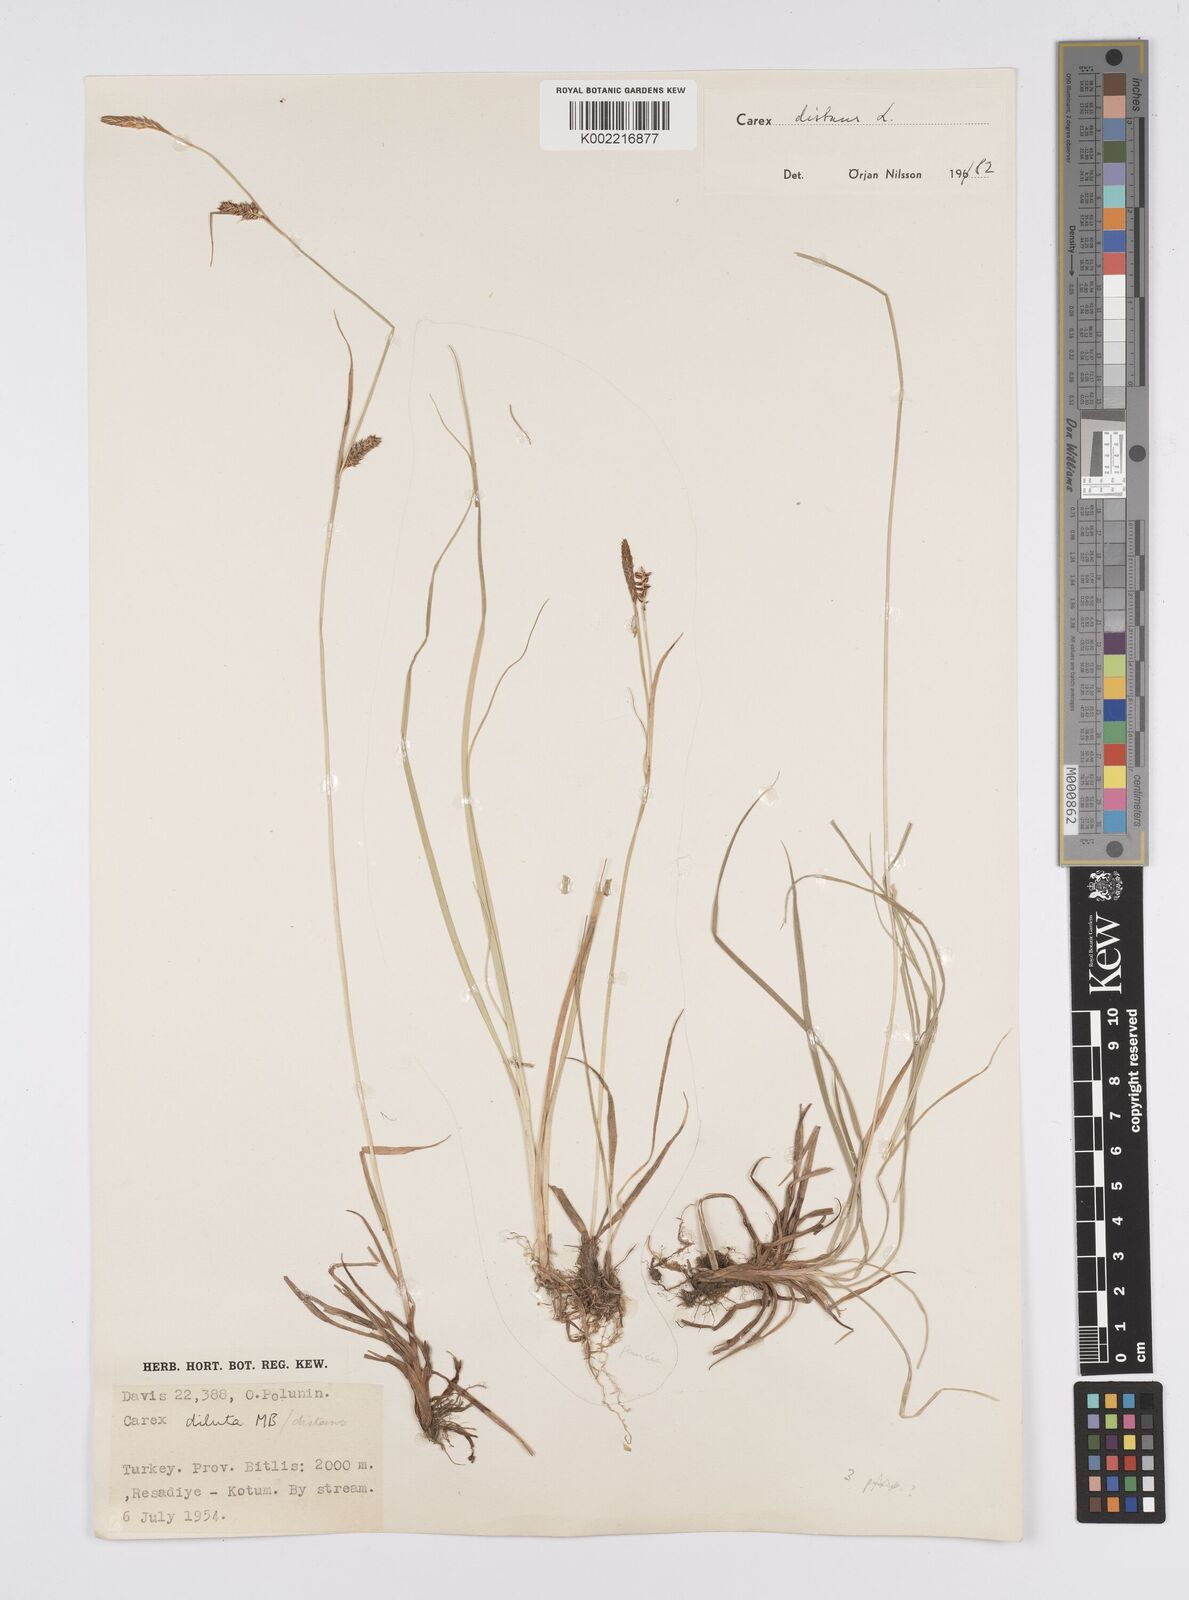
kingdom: Plantae
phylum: Tracheophyta
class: Liliopsida
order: Poales
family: Cyperaceae
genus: Carex
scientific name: Carex distans
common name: Distant sedge
